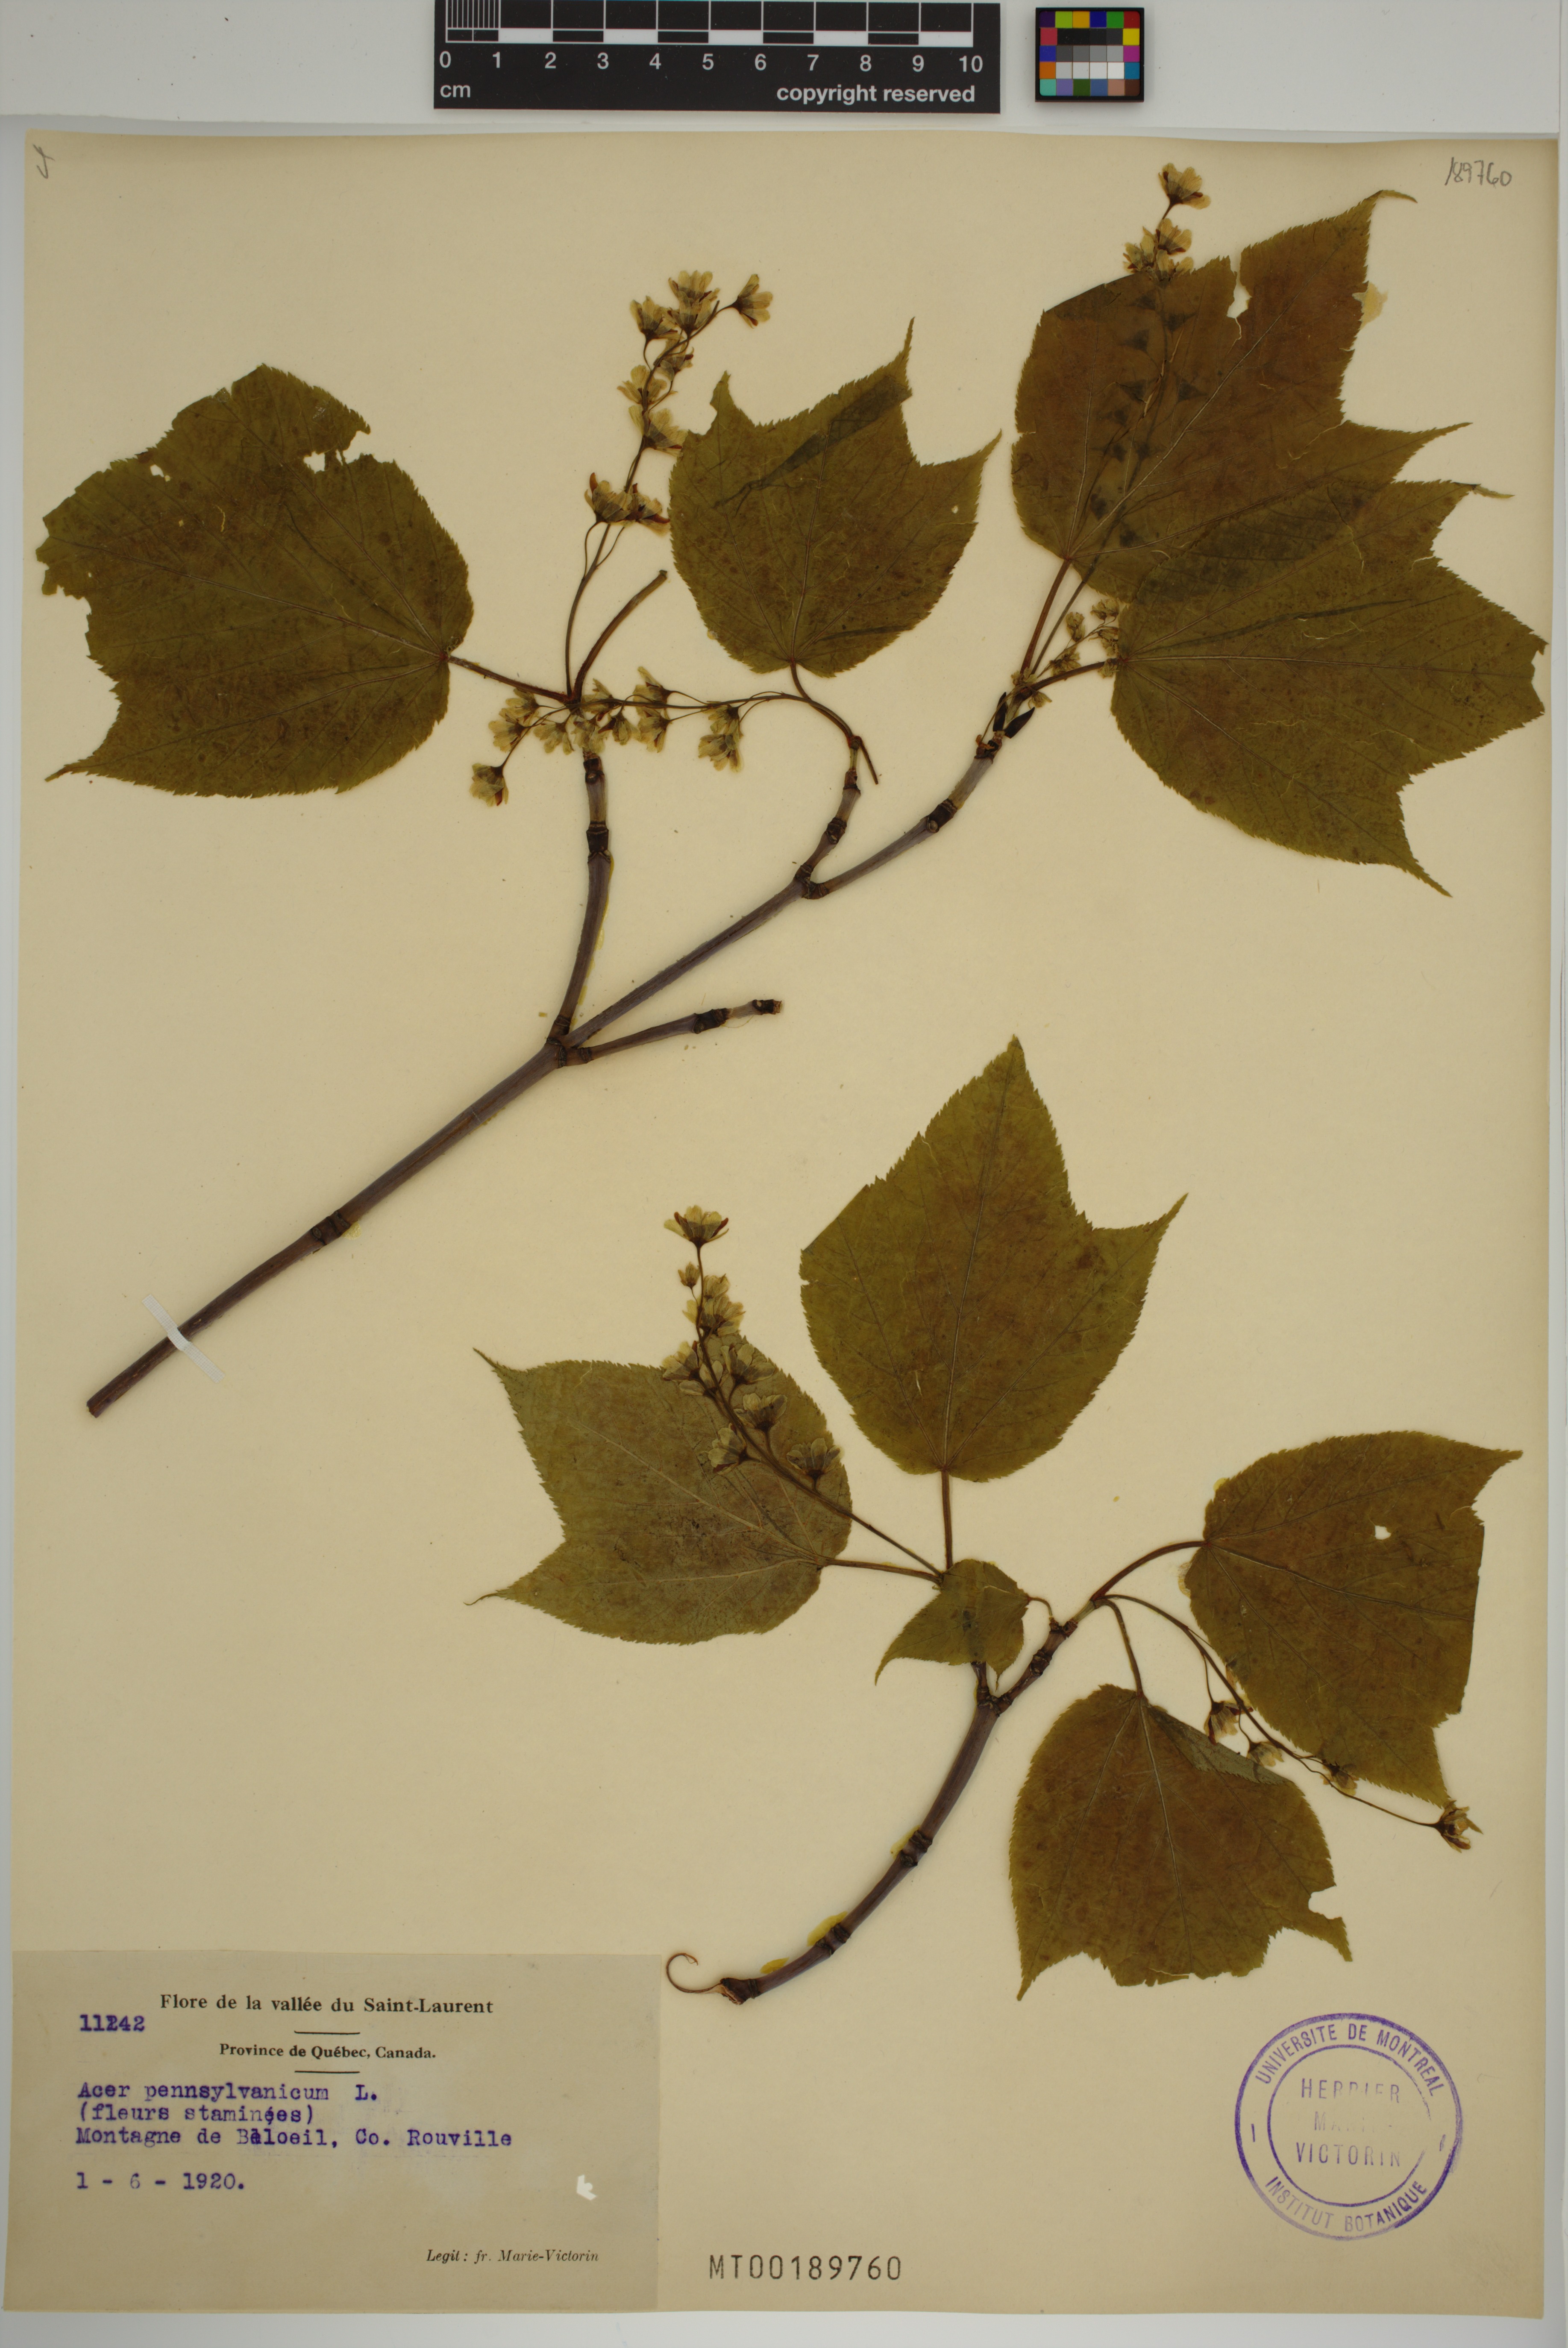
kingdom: Plantae
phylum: Tracheophyta
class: Magnoliopsida
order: Sapindales
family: Sapindaceae
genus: Acer
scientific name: Acer pensylvanicum
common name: Moosewood
